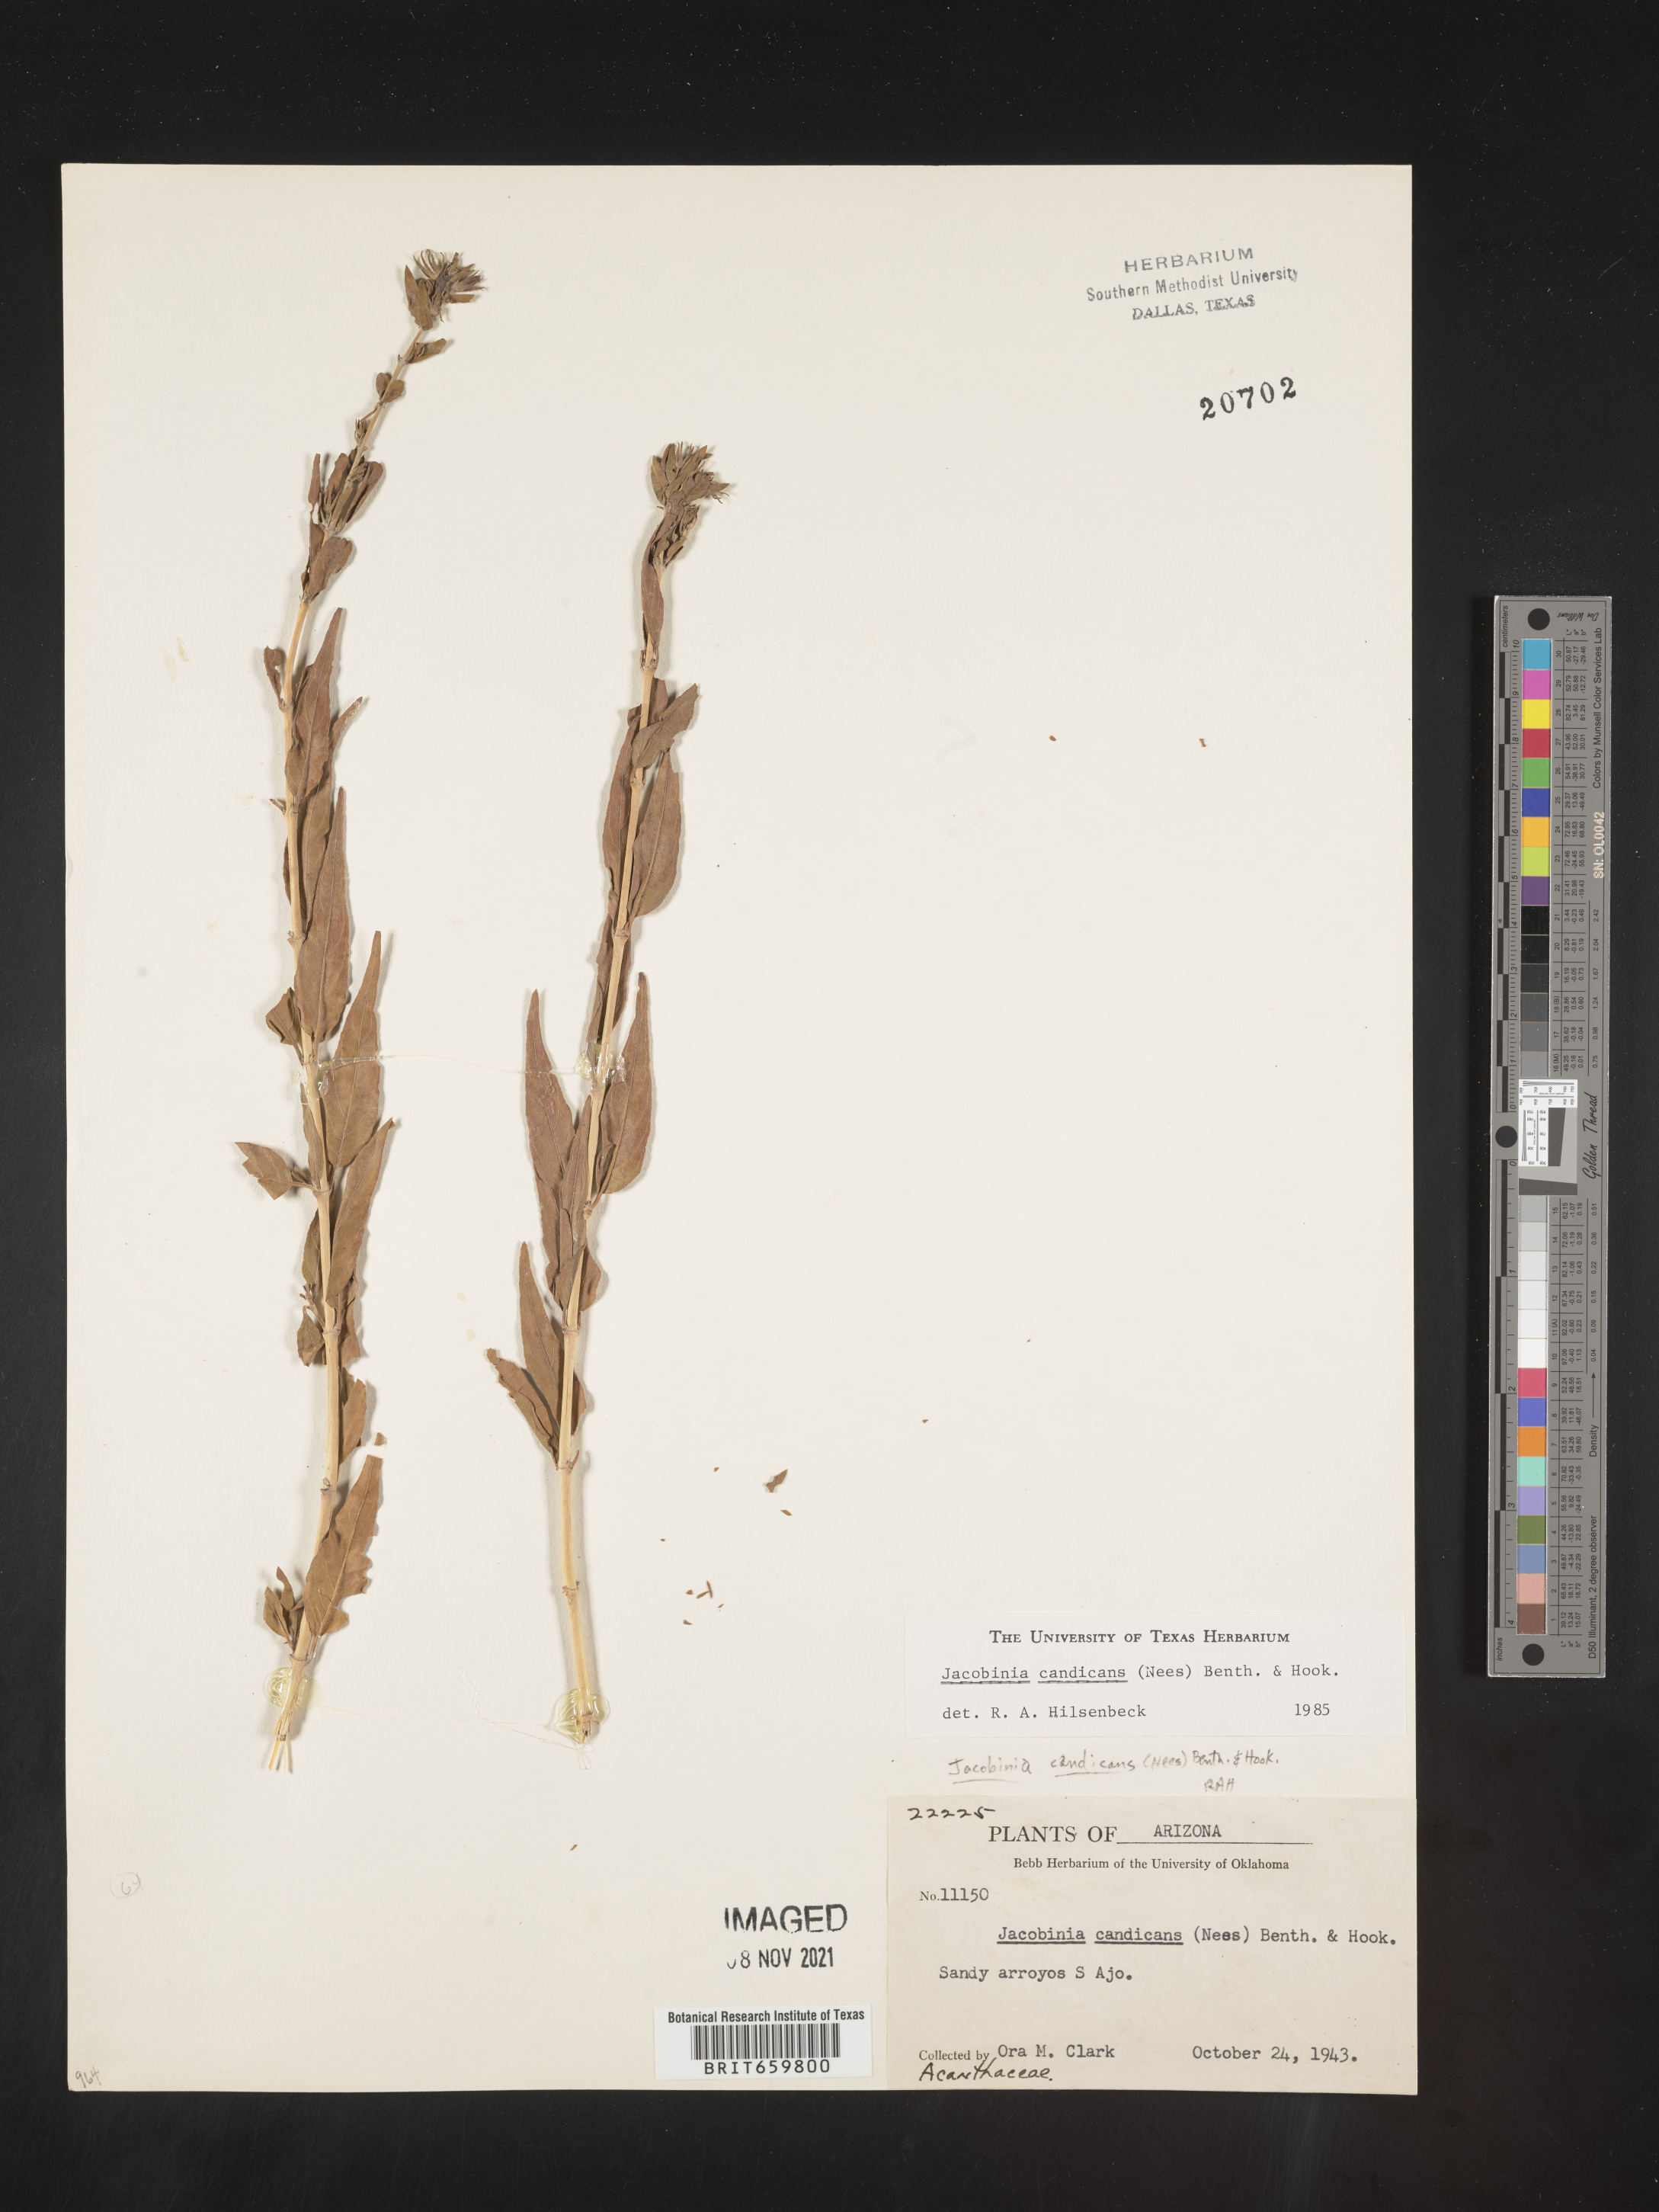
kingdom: Plantae
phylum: Tracheophyta
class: Magnoliopsida
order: Lamiales
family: Acanthaceae
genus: Justicia
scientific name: Justicia
